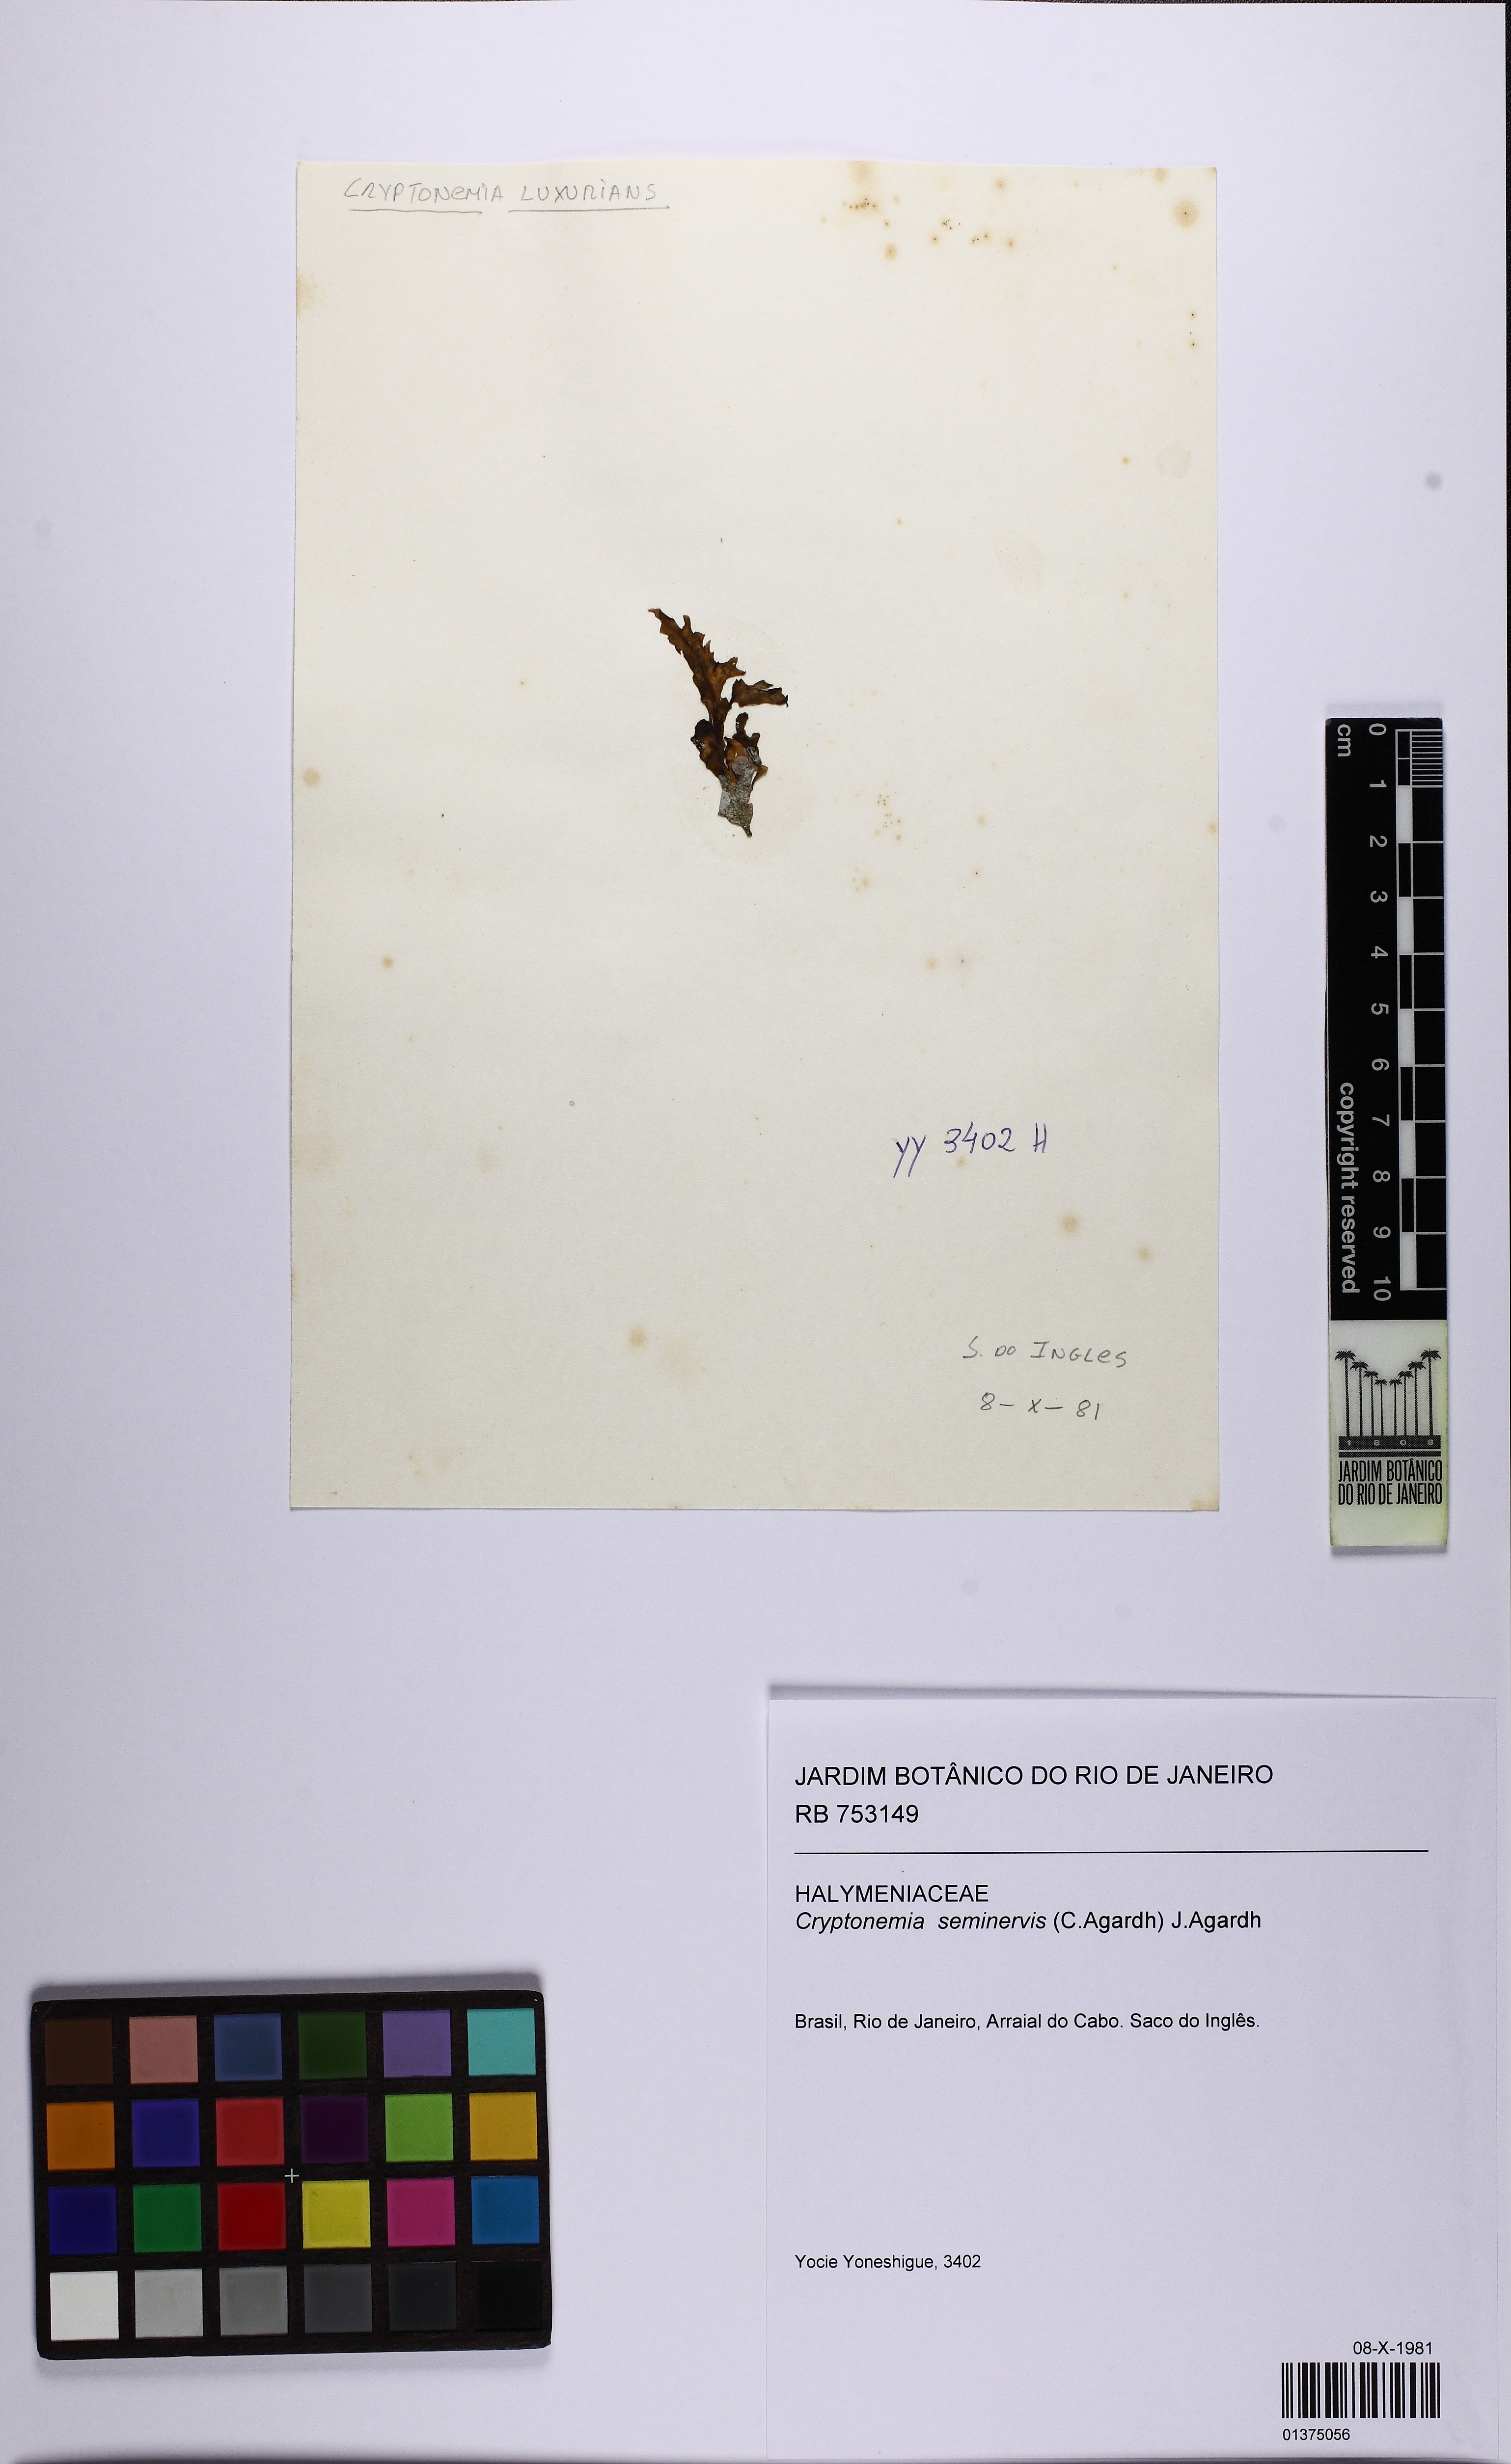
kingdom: Plantae
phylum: Rhodophyta
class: Florideophyceae
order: Halymeniales
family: Halymeniaceae
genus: Cryptonemia
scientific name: Cryptonemia seminervis
